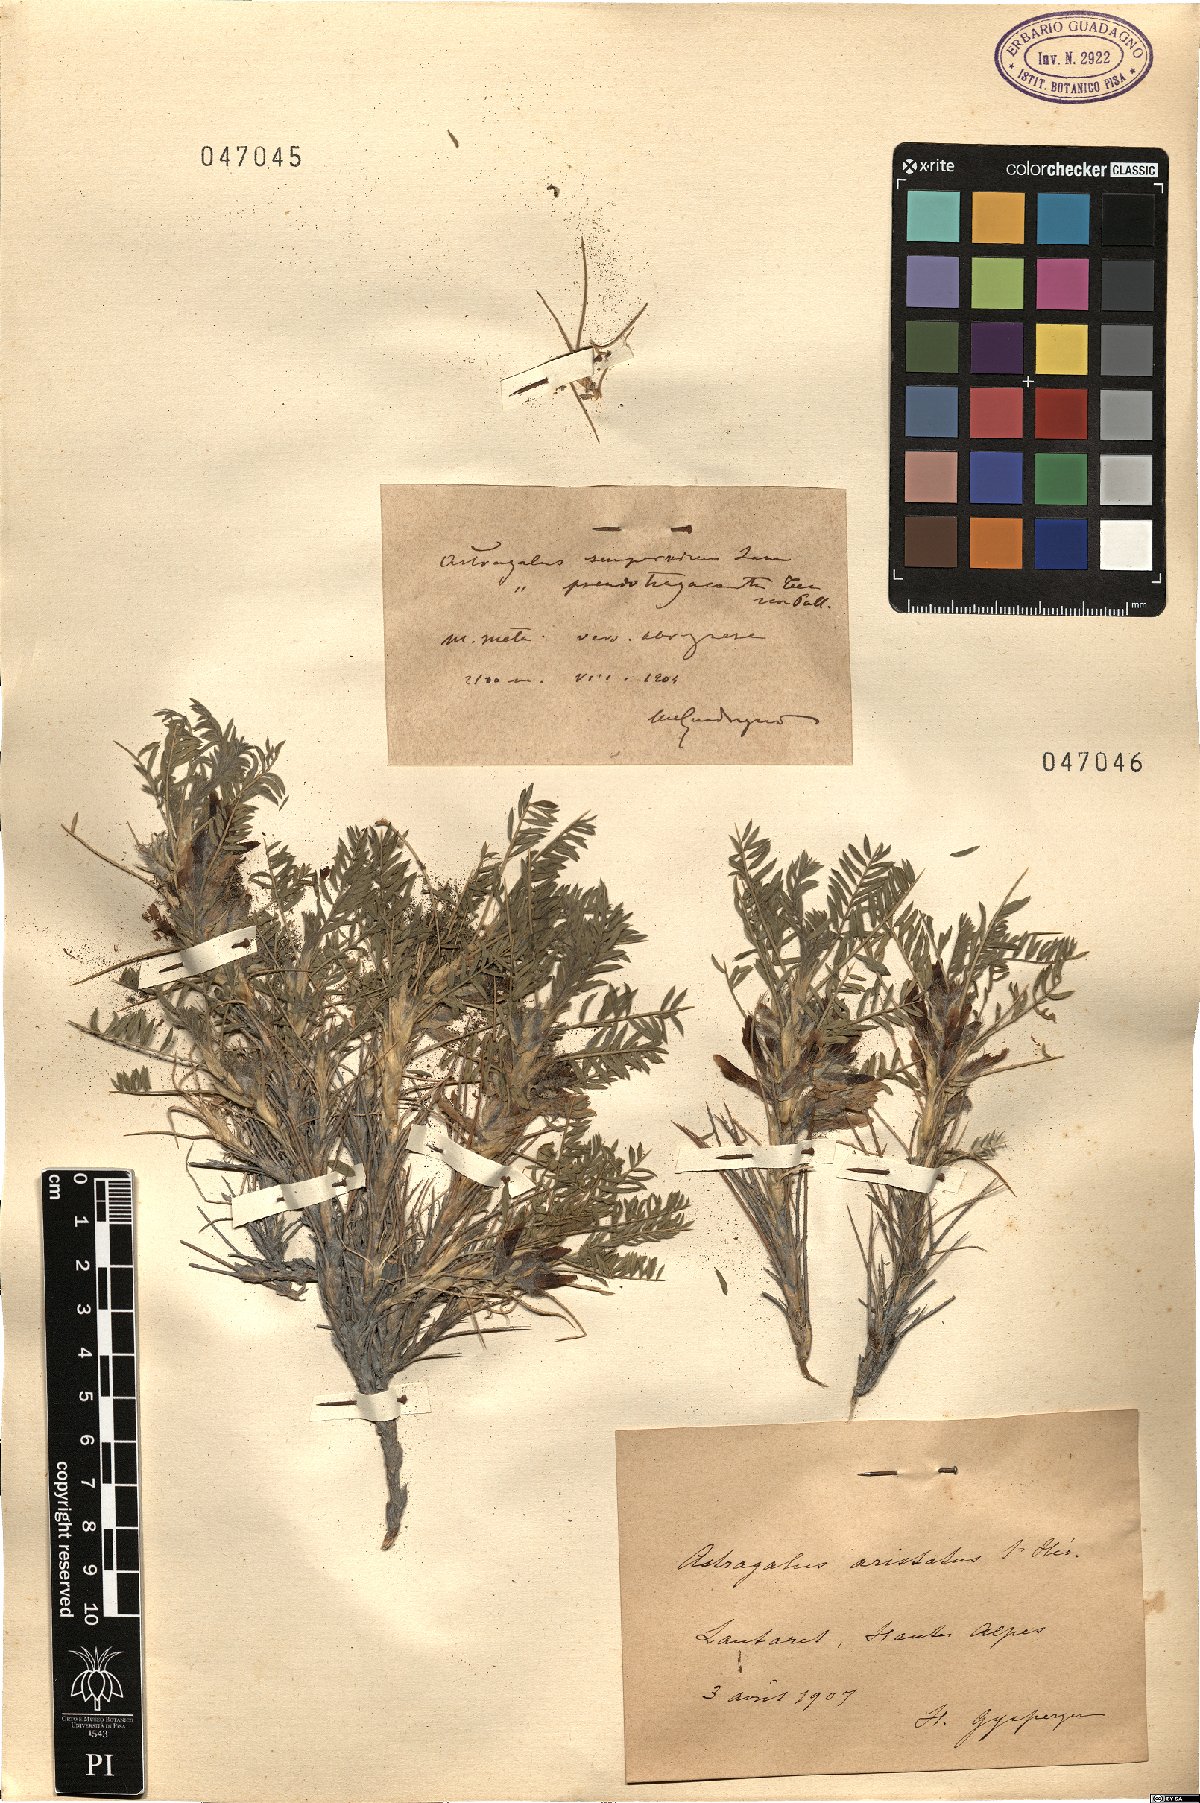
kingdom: Plantae
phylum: Tracheophyta
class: Magnoliopsida
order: Fabales
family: Fabaceae
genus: Astragalus
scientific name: Astragalus
